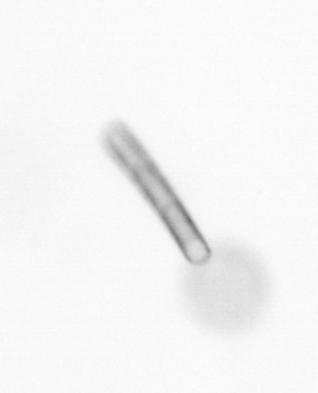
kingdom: Chromista
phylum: Ochrophyta
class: Bacillariophyceae
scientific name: Bacillariophyceae
